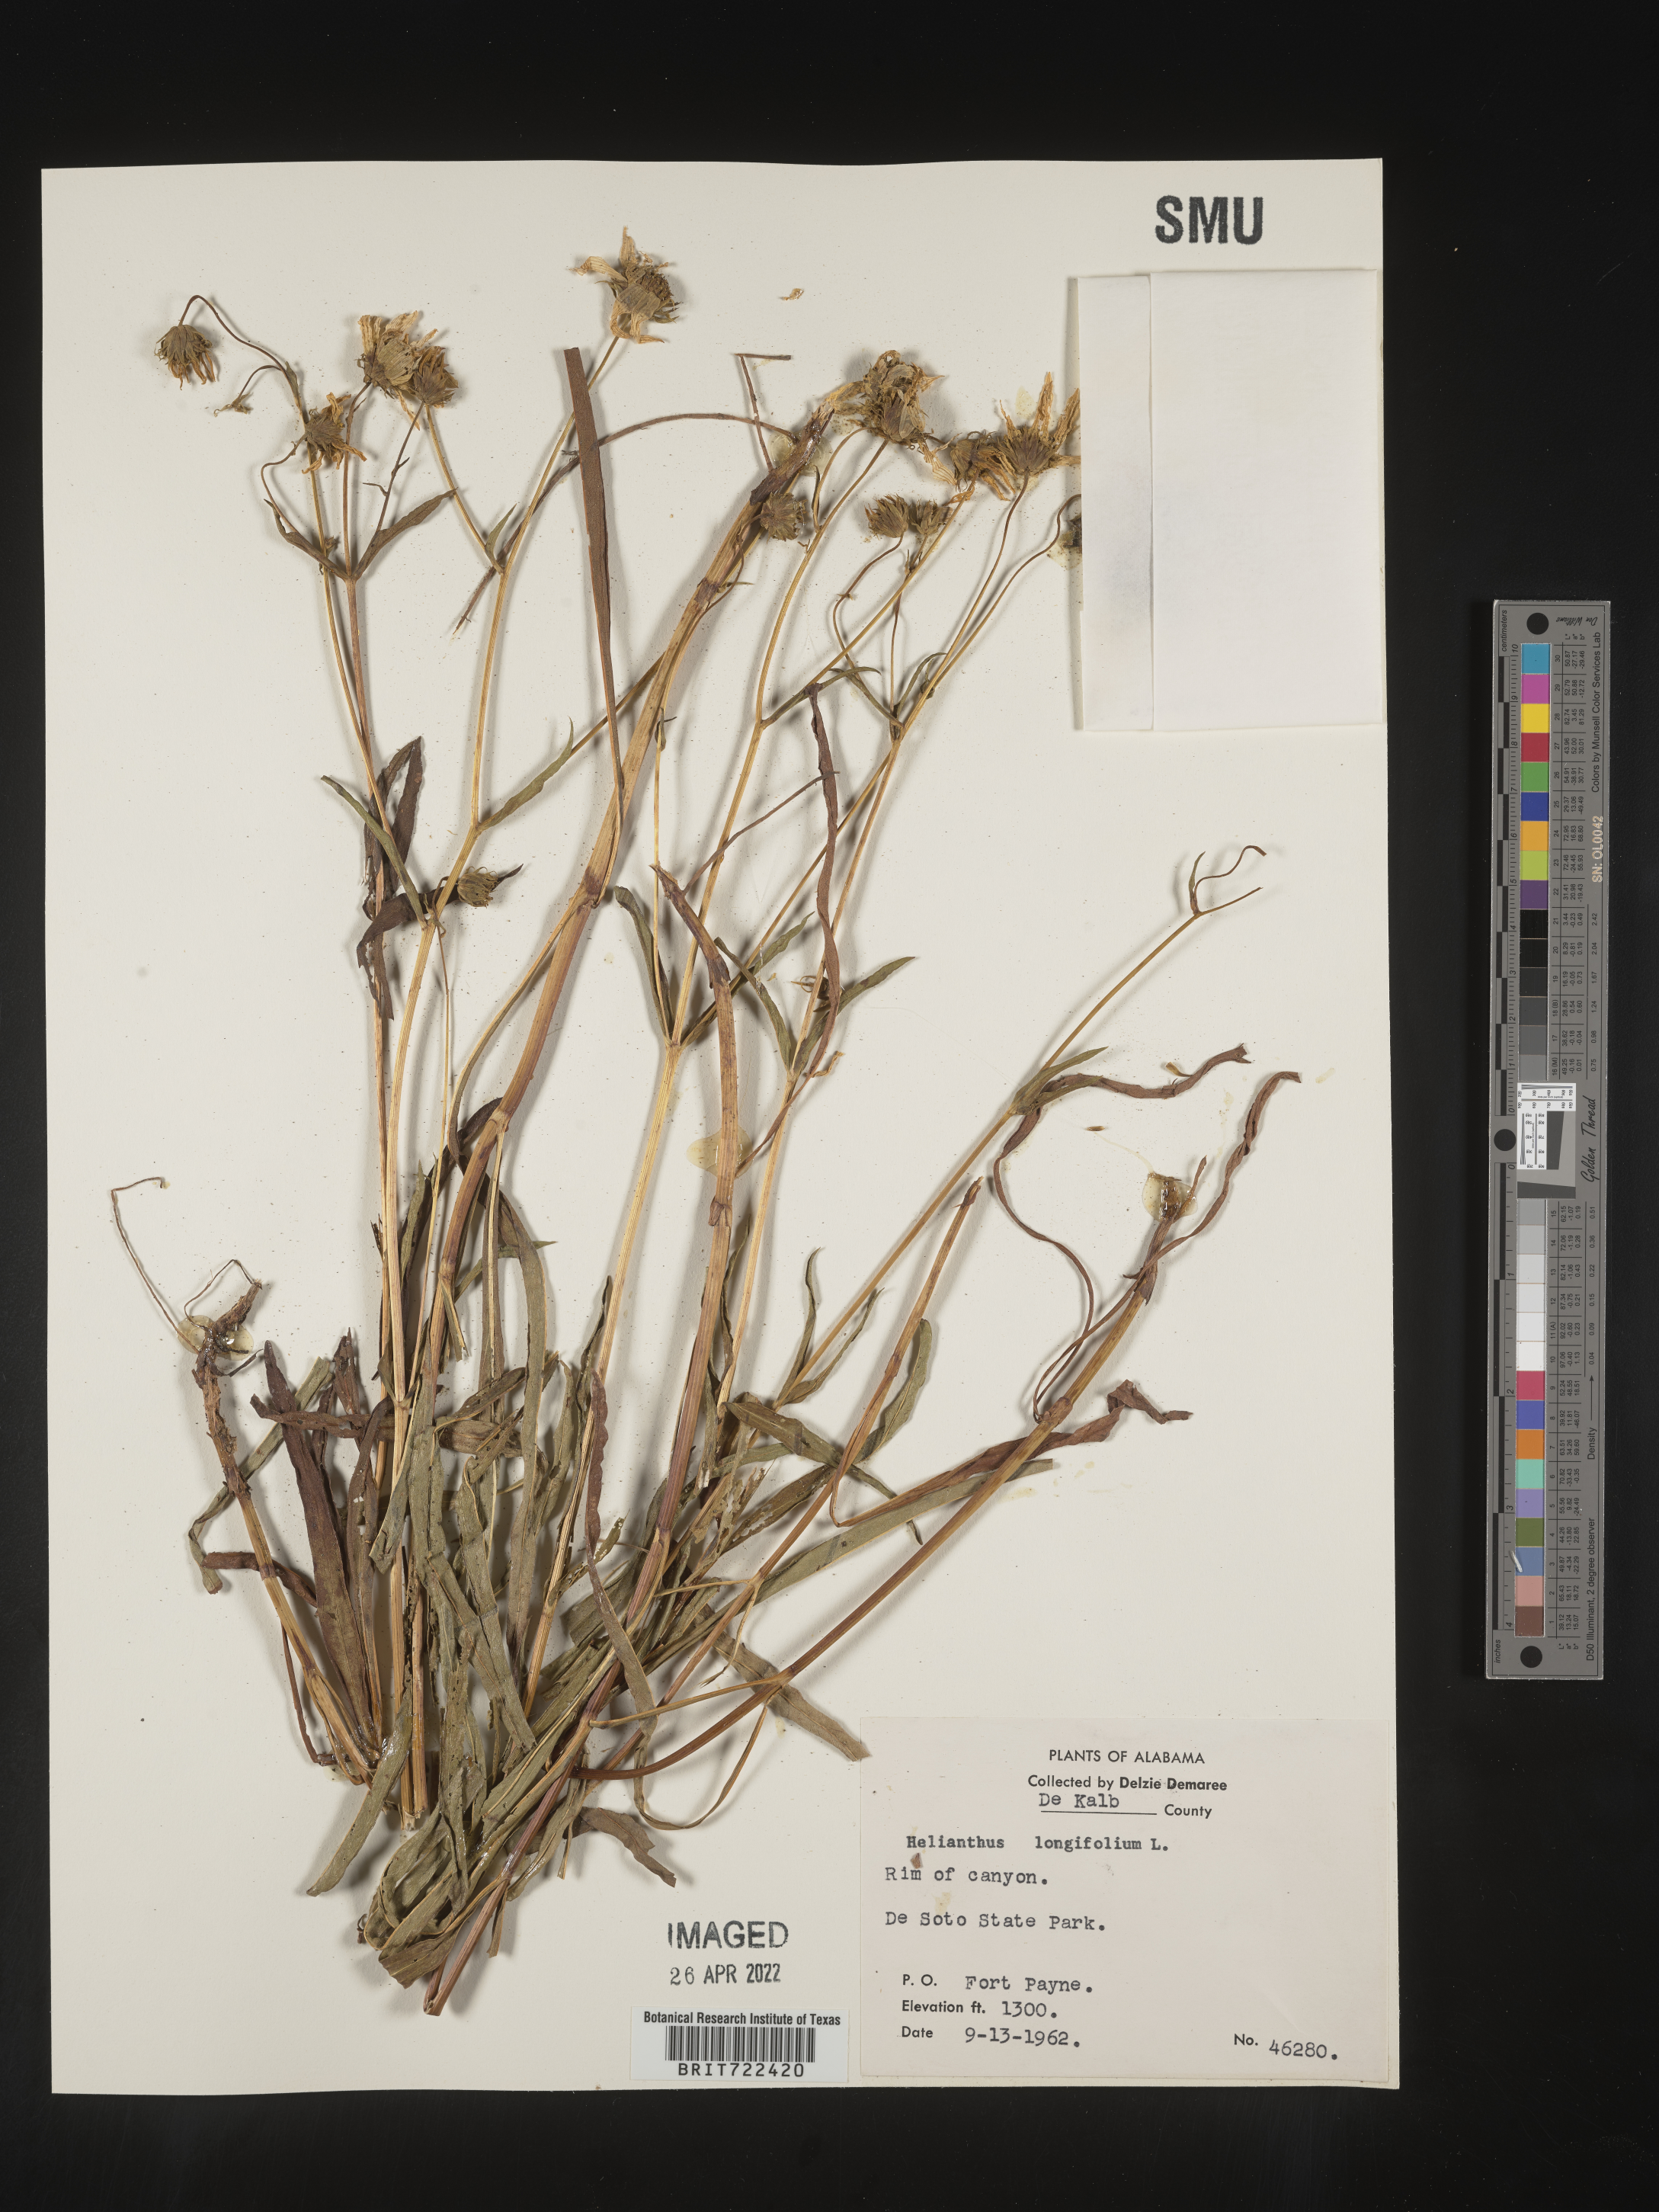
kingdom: Plantae
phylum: Tracheophyta
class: Magnoliopsida
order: Asterales
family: Asteraceae
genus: Helianthus
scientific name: Helianthus
